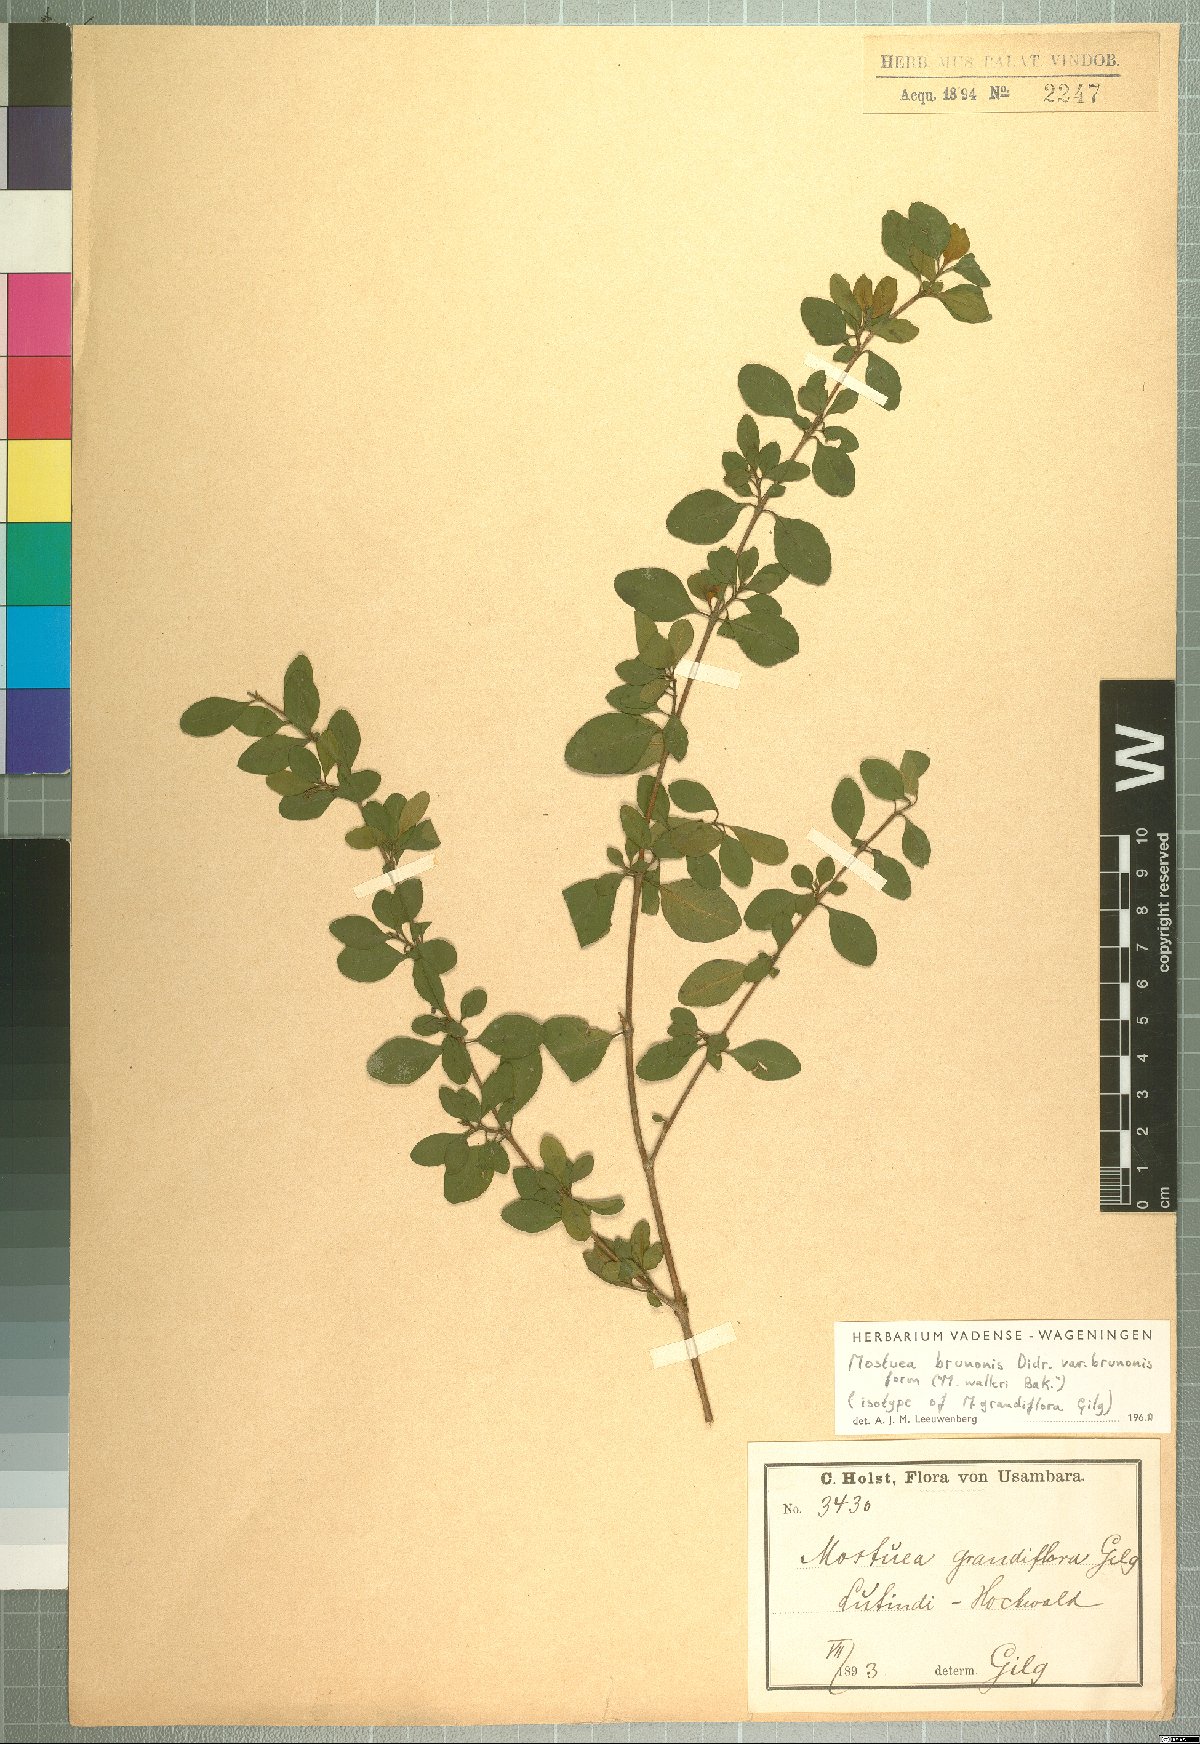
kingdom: Plantae
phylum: Tracheophyta
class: Magnoliopsida
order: Gentianales
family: Gelsemiaceae
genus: Mostuea
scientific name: Mostuea brunonis
